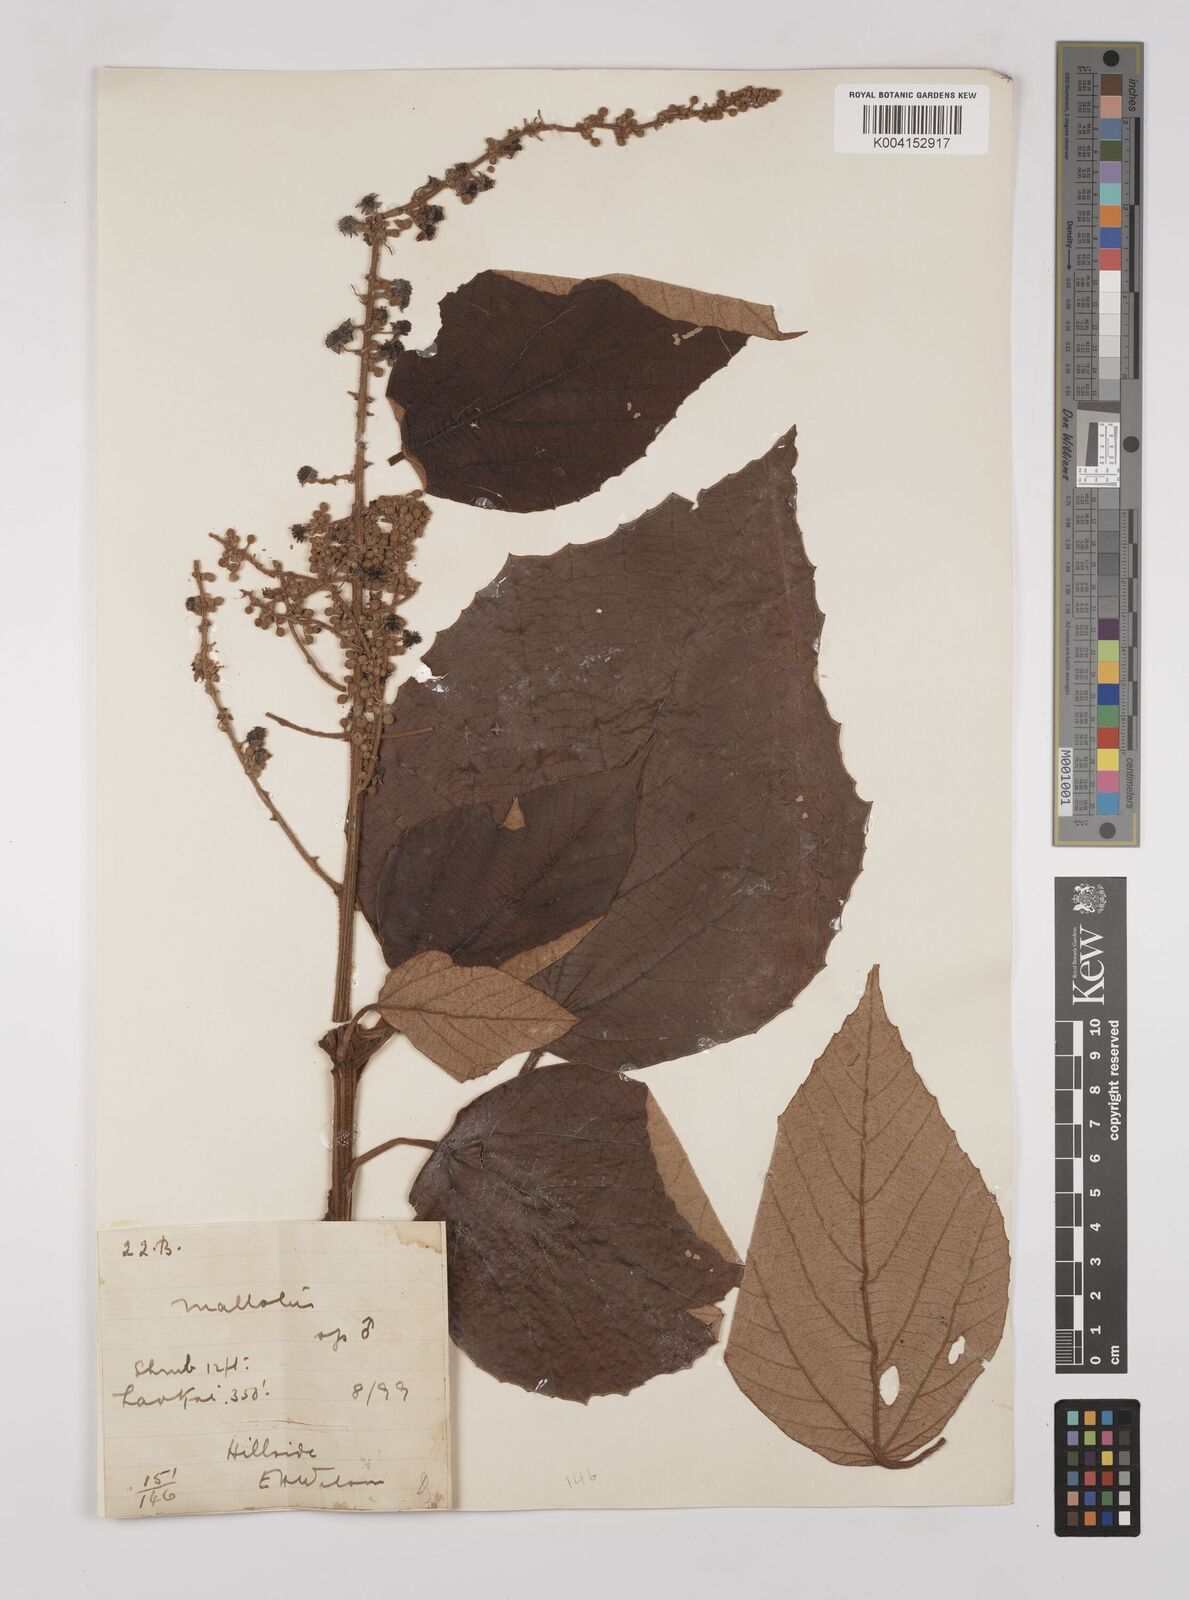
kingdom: Plantae
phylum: Tracheophyta
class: Magnoliopsida
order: Malpighiales
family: Euphorbiaceae
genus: Mallotus
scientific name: Mallotus
